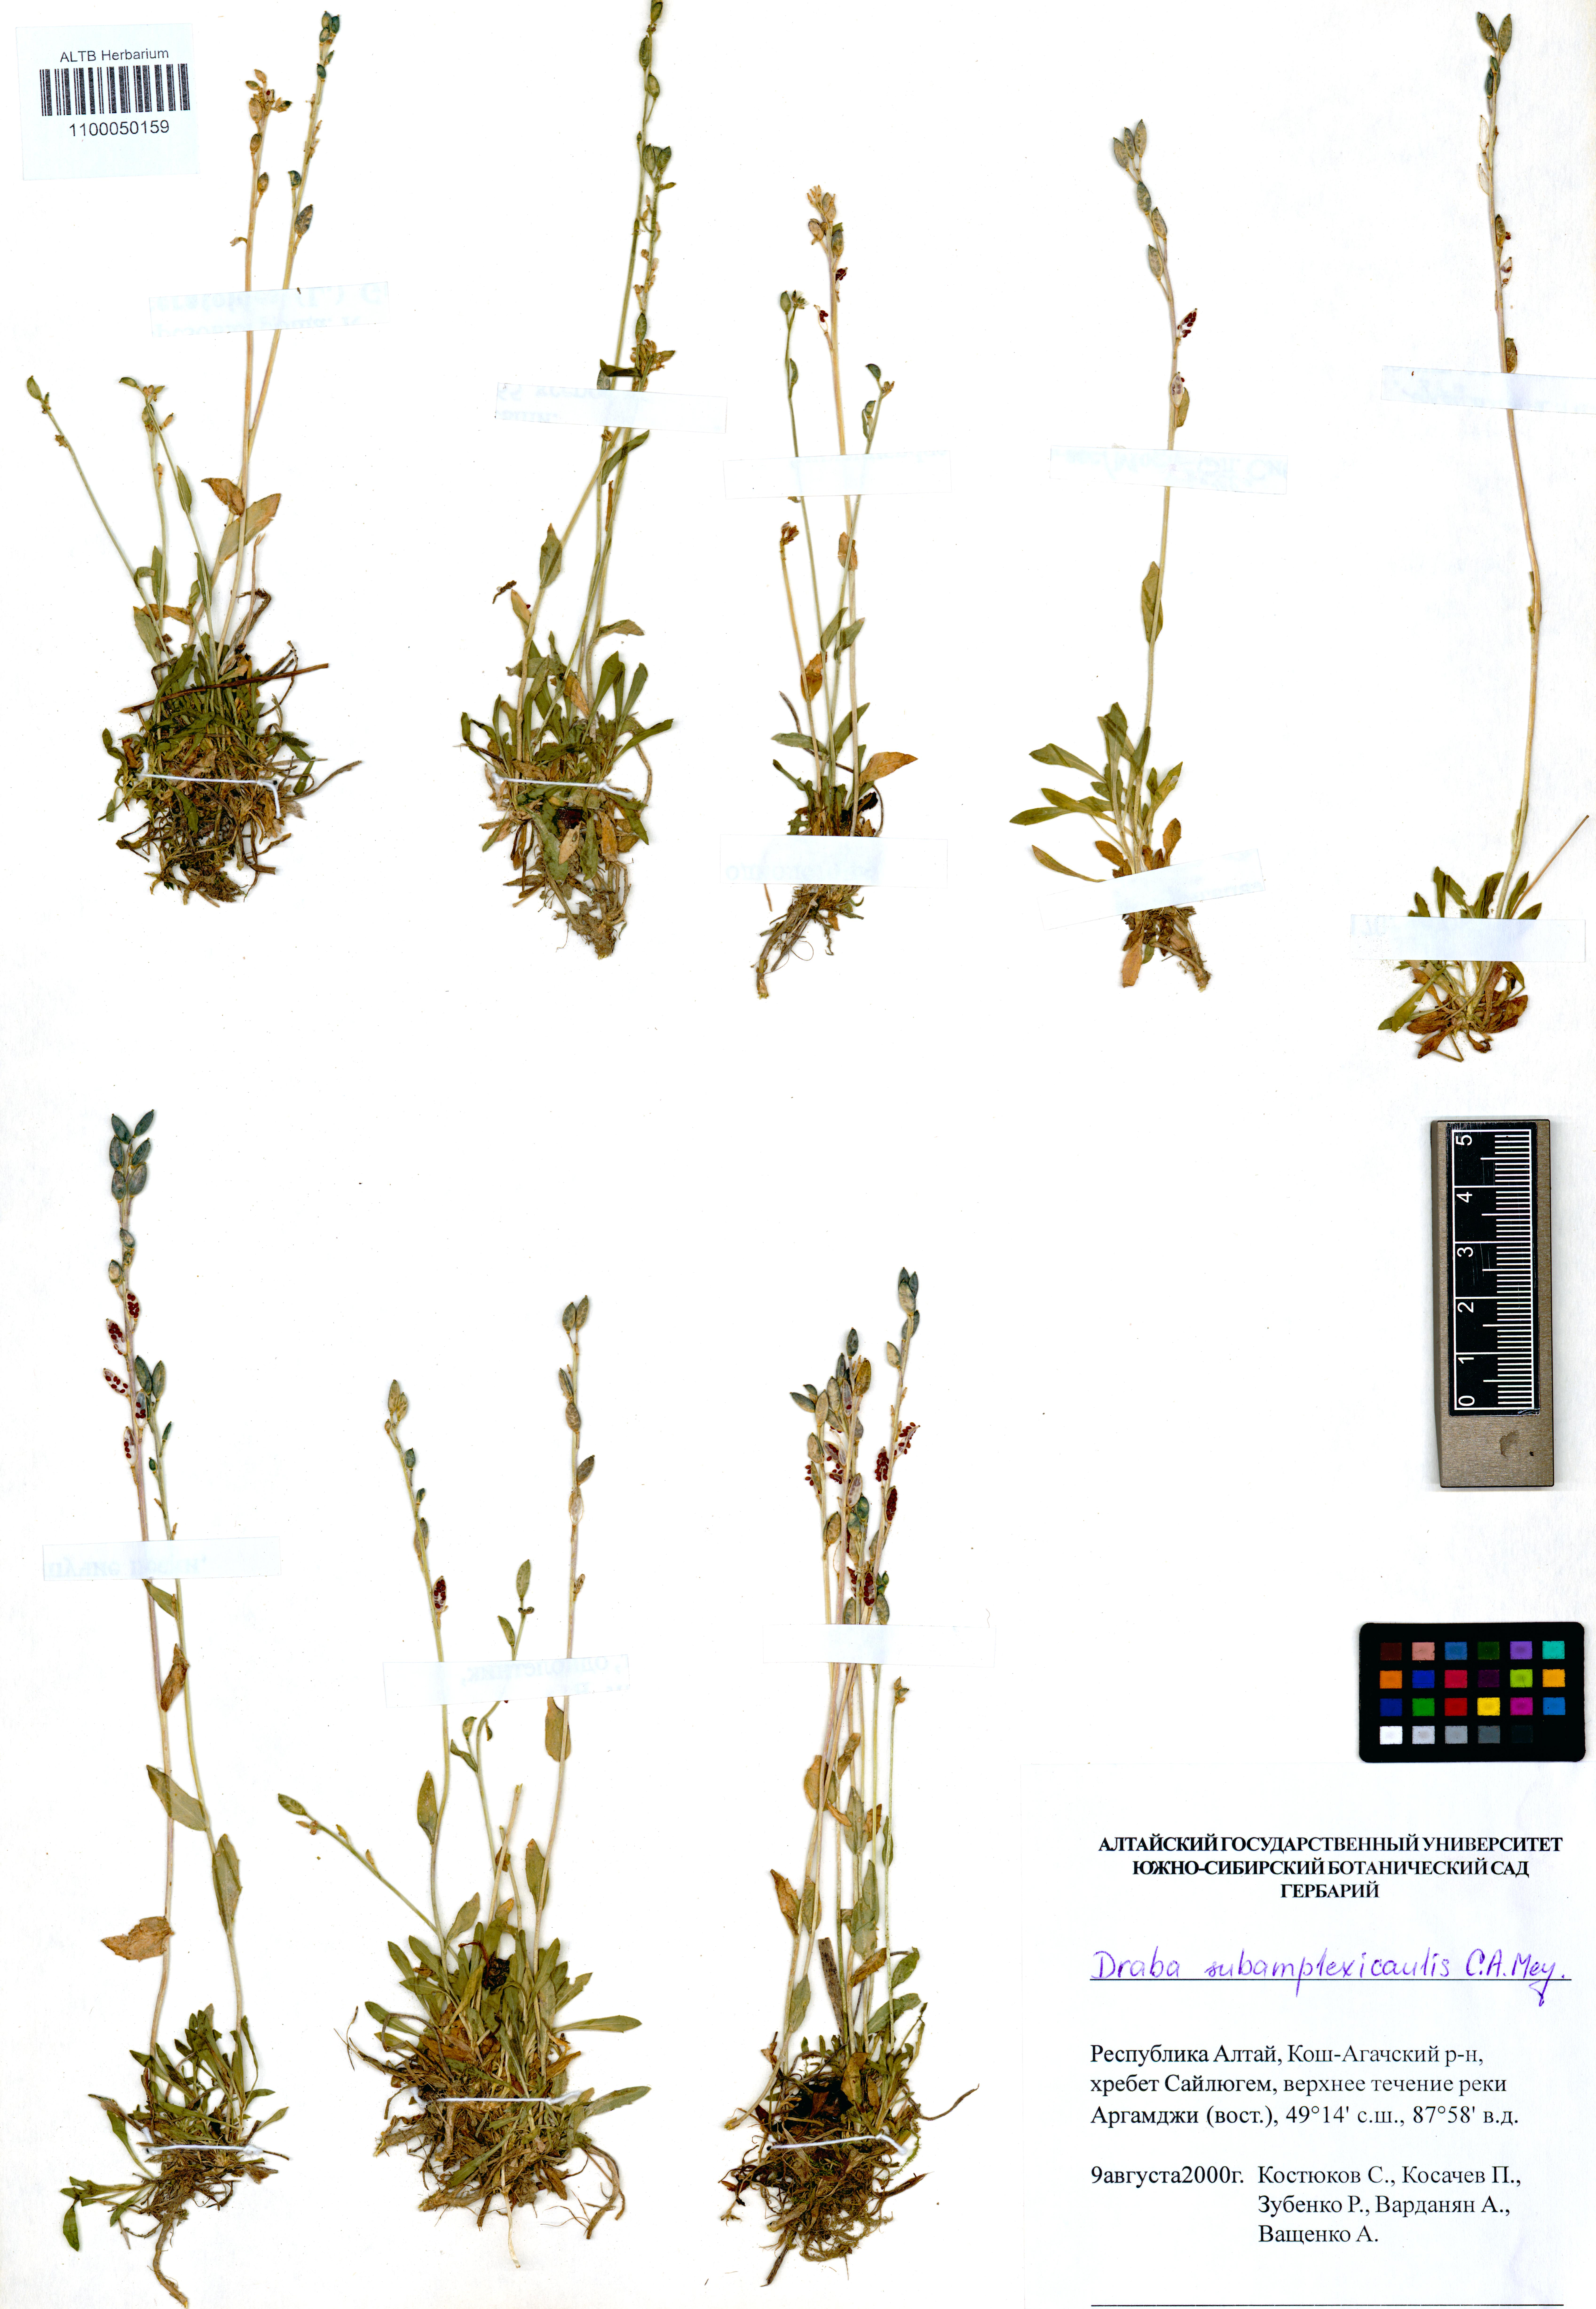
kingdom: Plantae
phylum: Tracheophyta
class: Magnoliopsida
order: Brassicales
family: Brassicaceae
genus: Draba
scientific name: Draba subamplexicaulis
